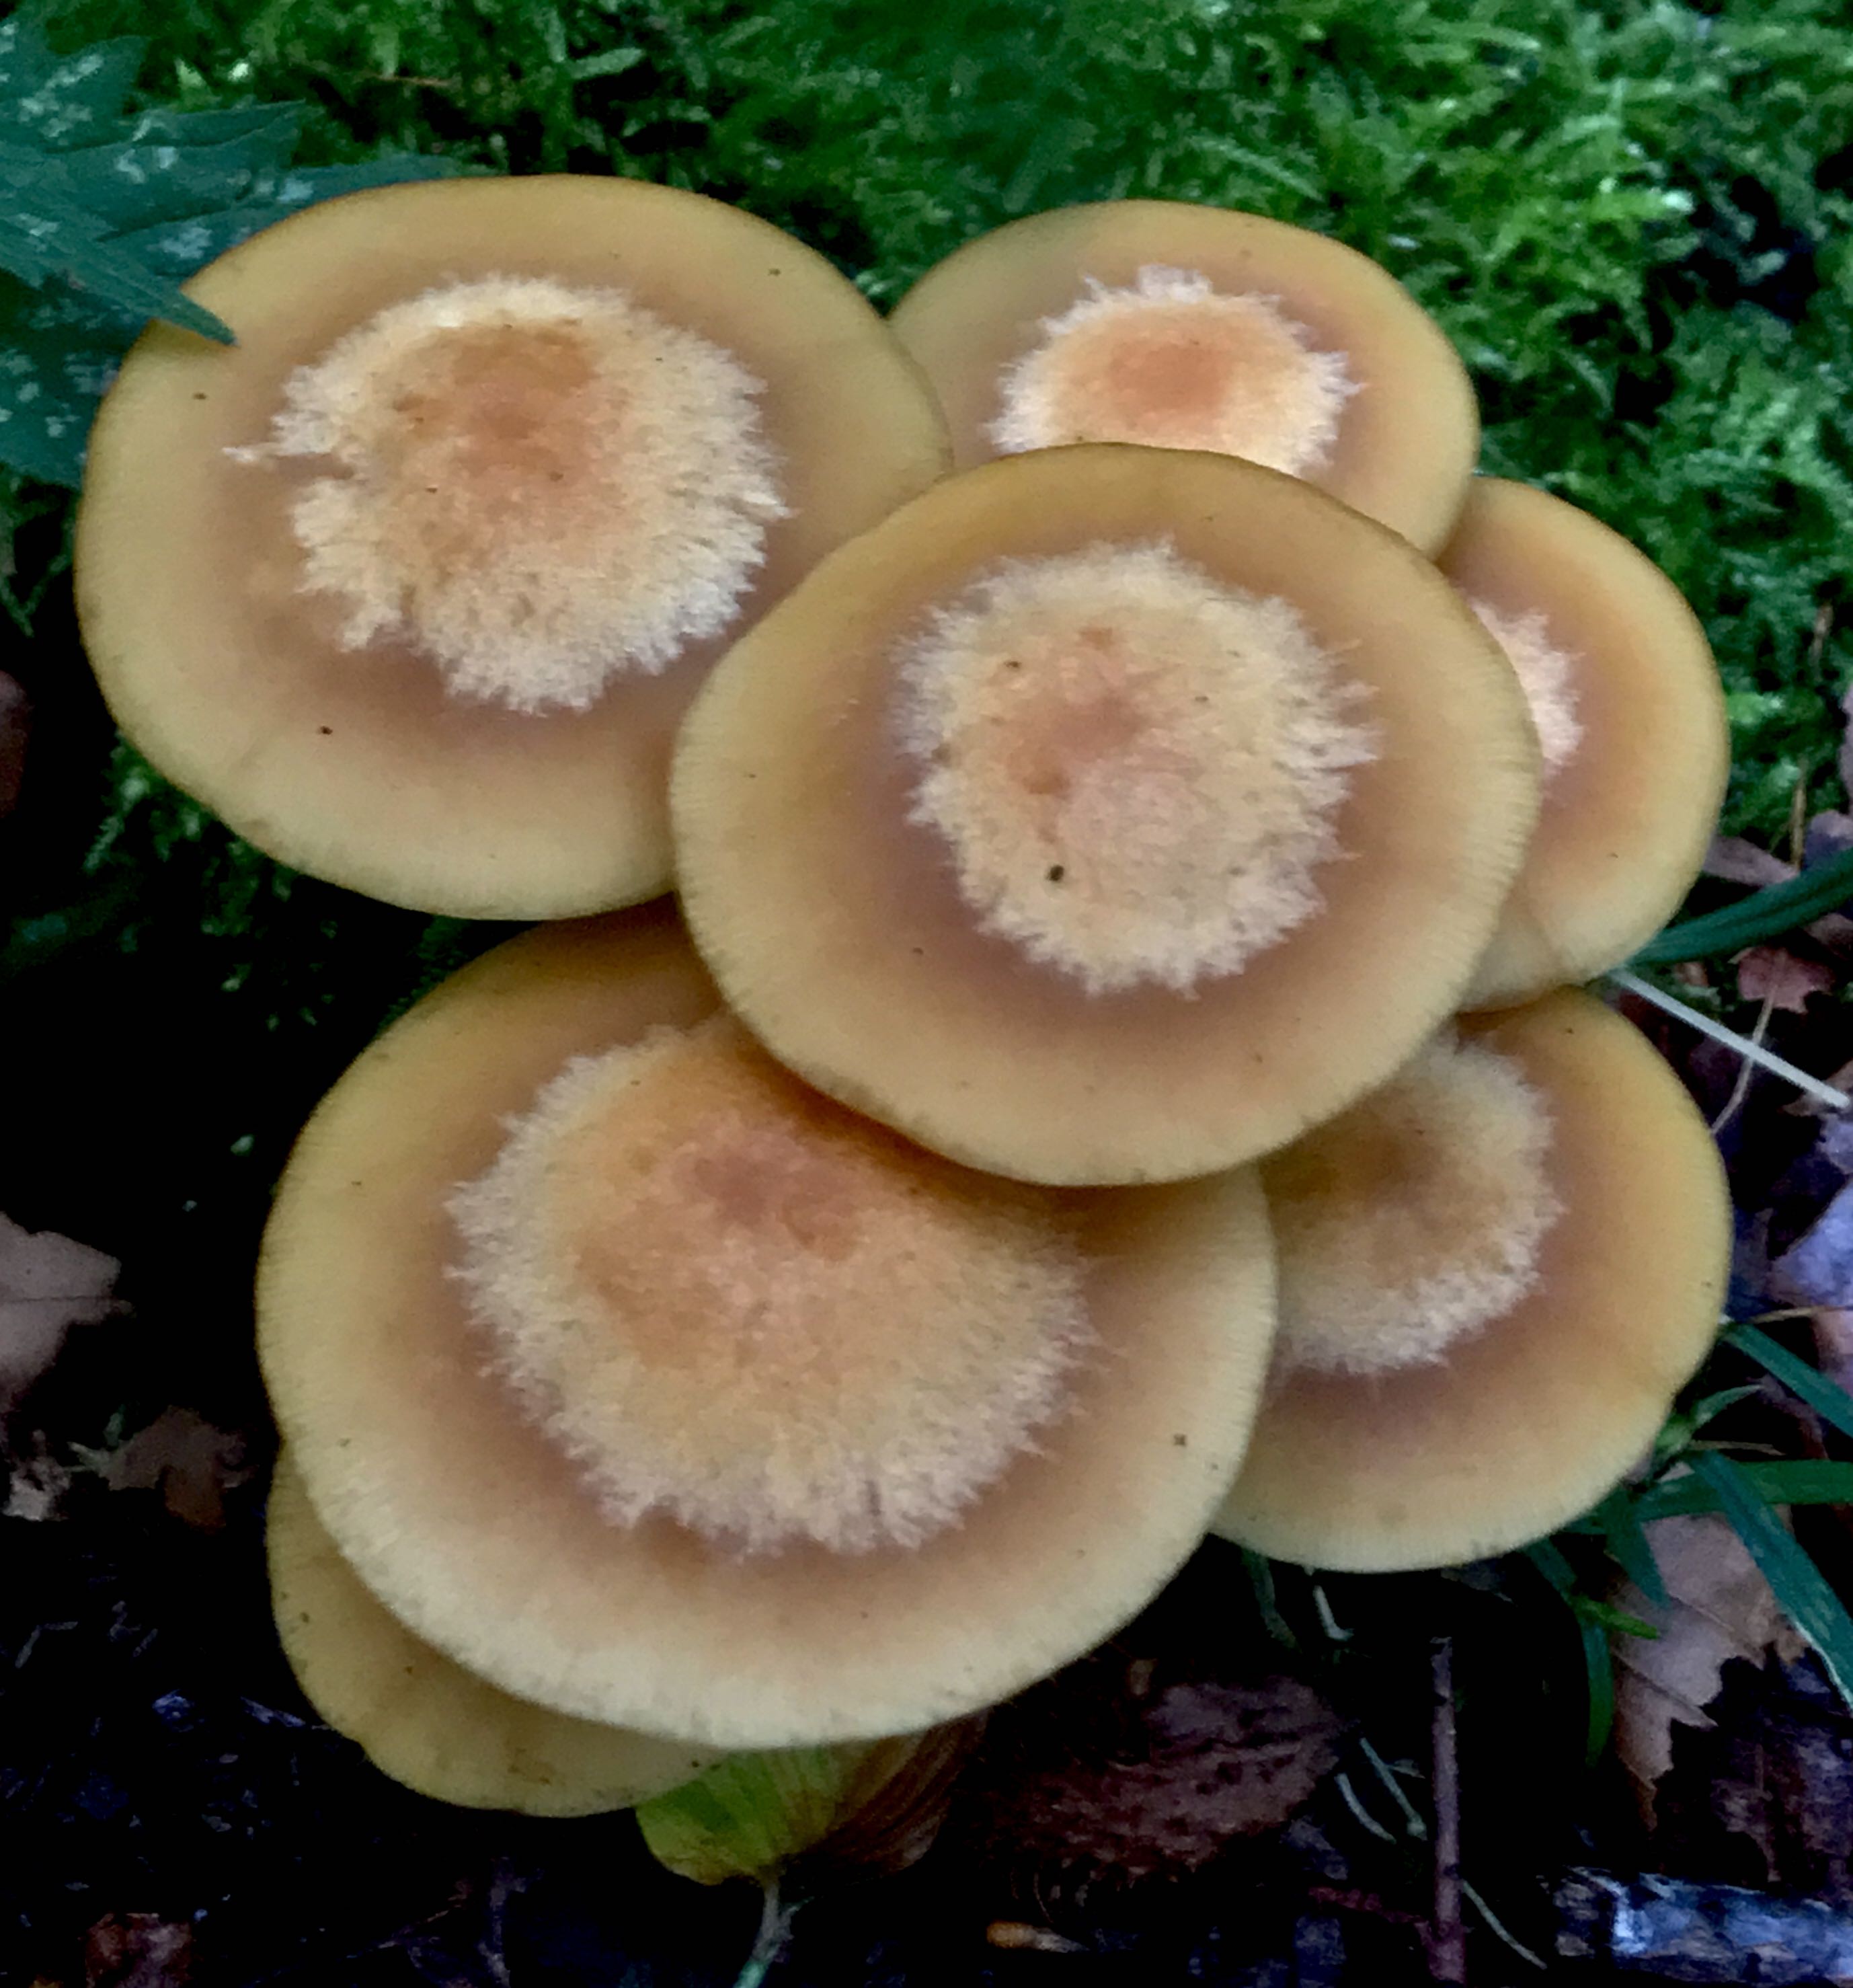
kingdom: Fungi
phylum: Basidiomycota
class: Agaricomycetes
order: Agaricales
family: Strophariaceae
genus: Kuehneromyces
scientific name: Kuehneromyces mutabilis
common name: foranderlig skælhat
